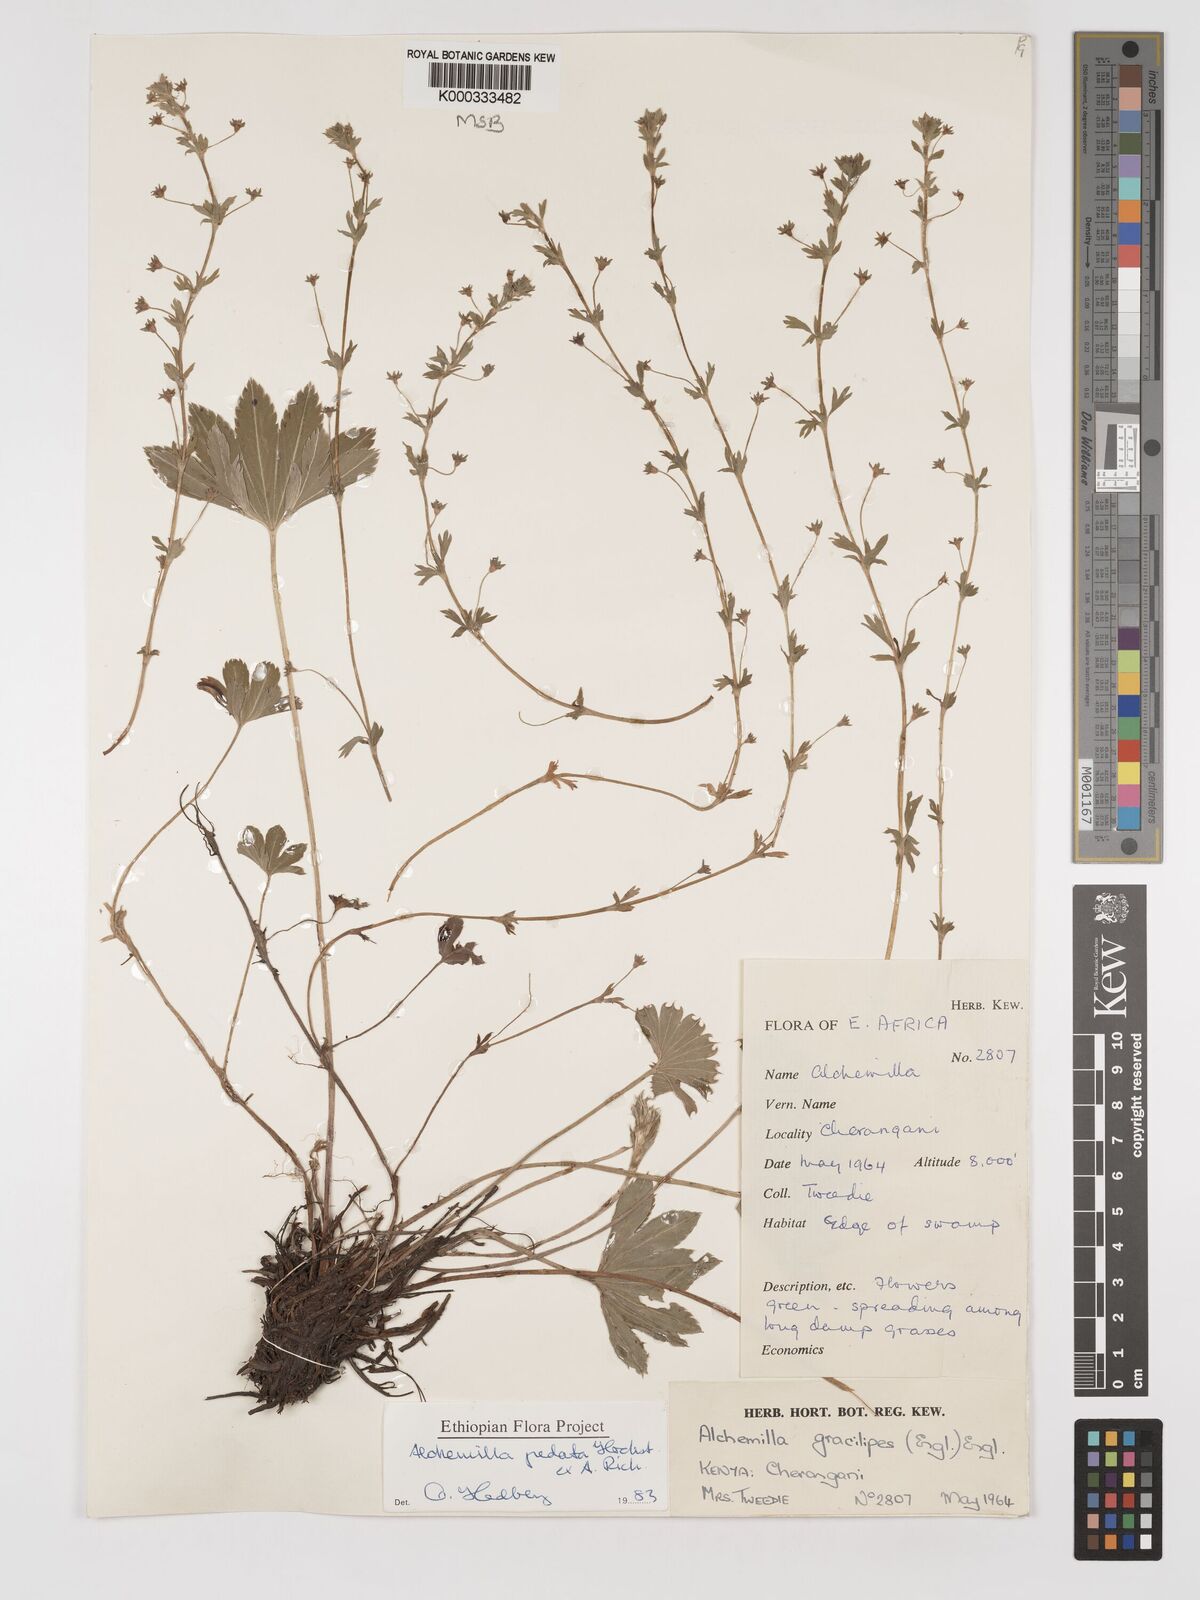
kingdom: Plantae
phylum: Tracheophyta
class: Magnoliopsida
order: Rosales
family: Rosaceae
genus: Alchemilla
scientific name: Alchemilla pedata
